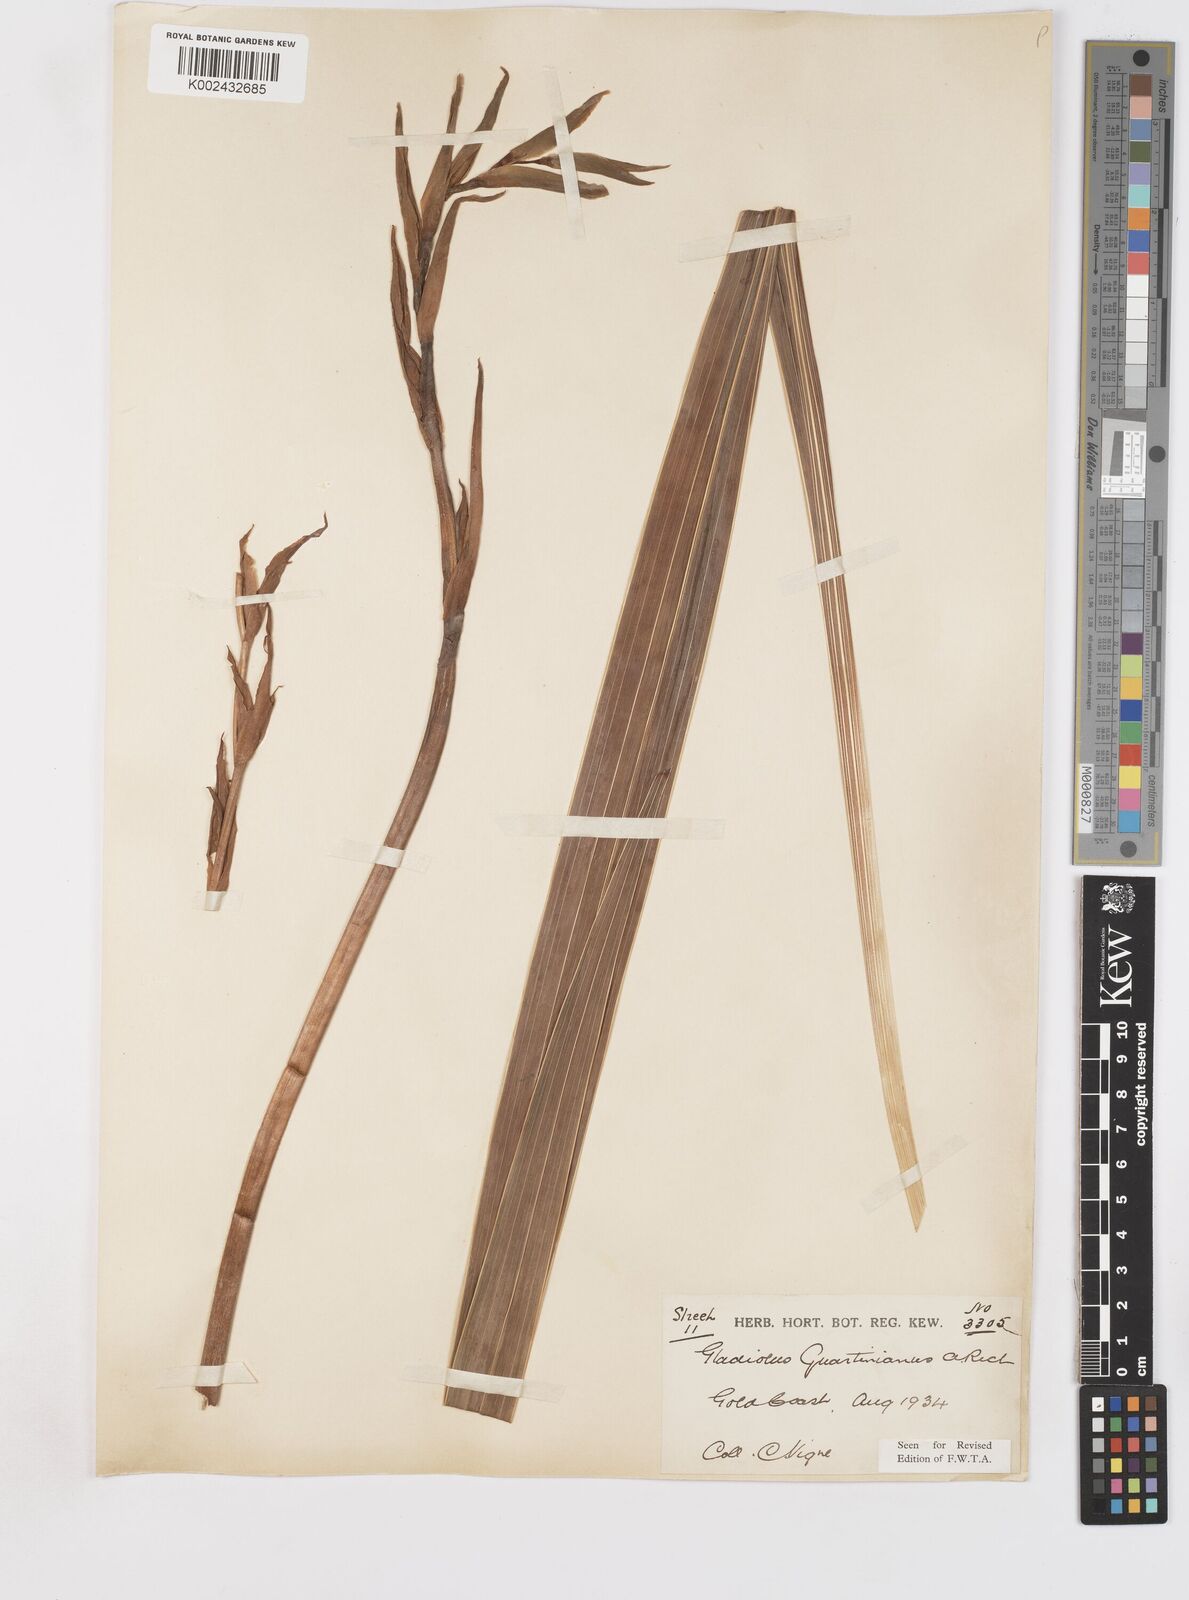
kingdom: Plantae
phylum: Tracheophyta
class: Liliopsida
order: Asparagales
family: Iridaceae
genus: Gladiolus
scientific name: Gladiolus dalenii
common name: Cornflag
